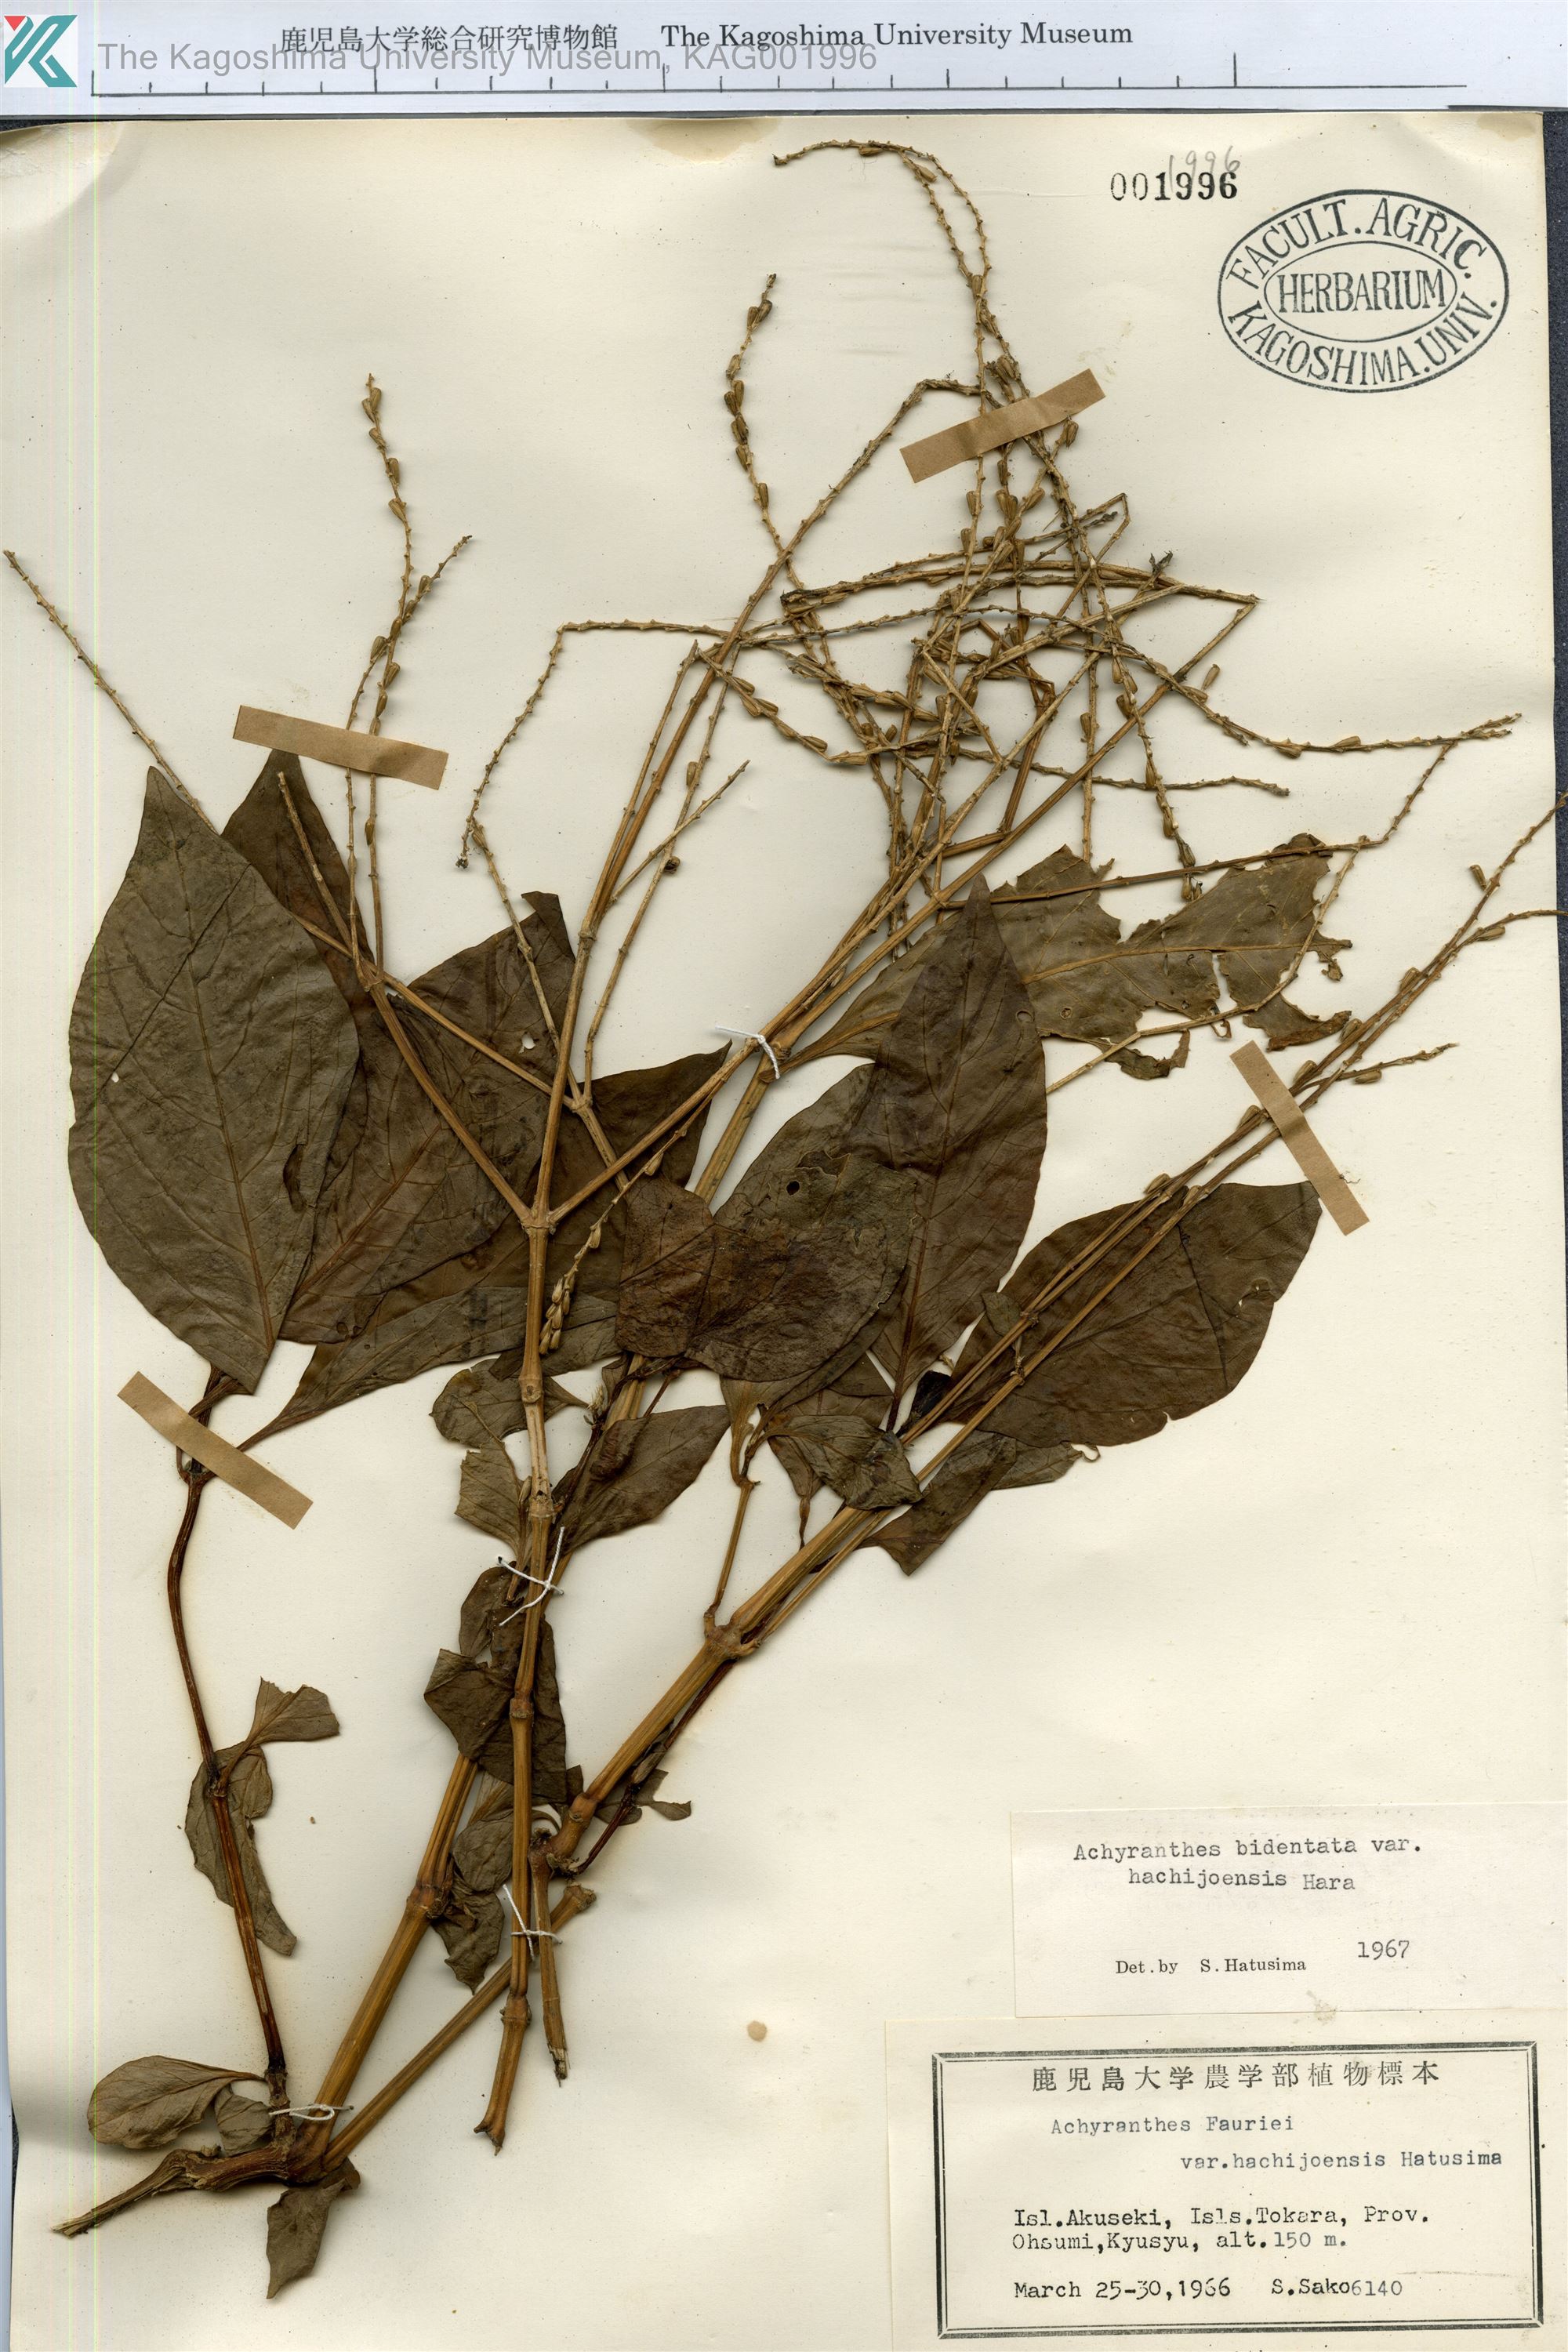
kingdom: Plantae
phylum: Tracheophyta
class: Magnoliopsida
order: Caryophyllales
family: Amaranthaceae
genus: Achyranthes
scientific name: Achyranthes bidentata
